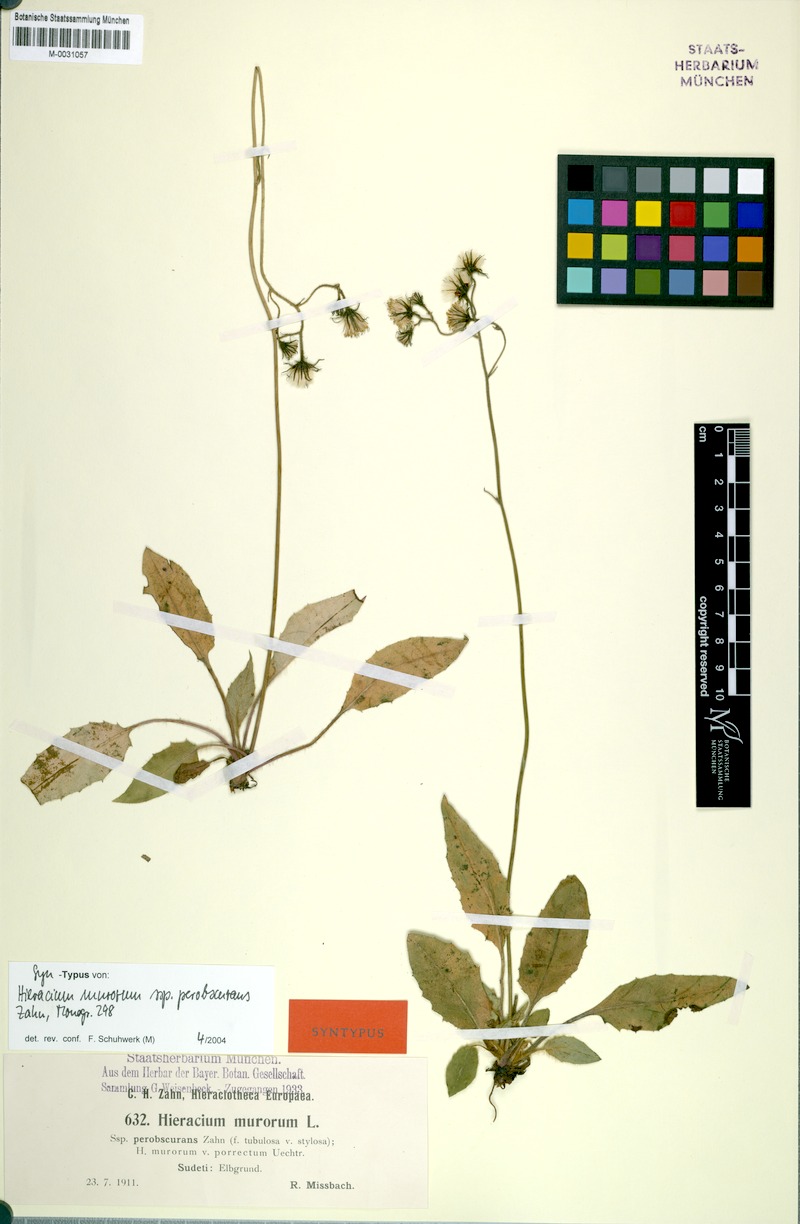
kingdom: Plantae
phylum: Tracheophyta
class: Magnoliopsida
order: Asterales
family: Asteraceae
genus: Hieracium
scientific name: Hieracium murorum
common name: Wall hawkweed
